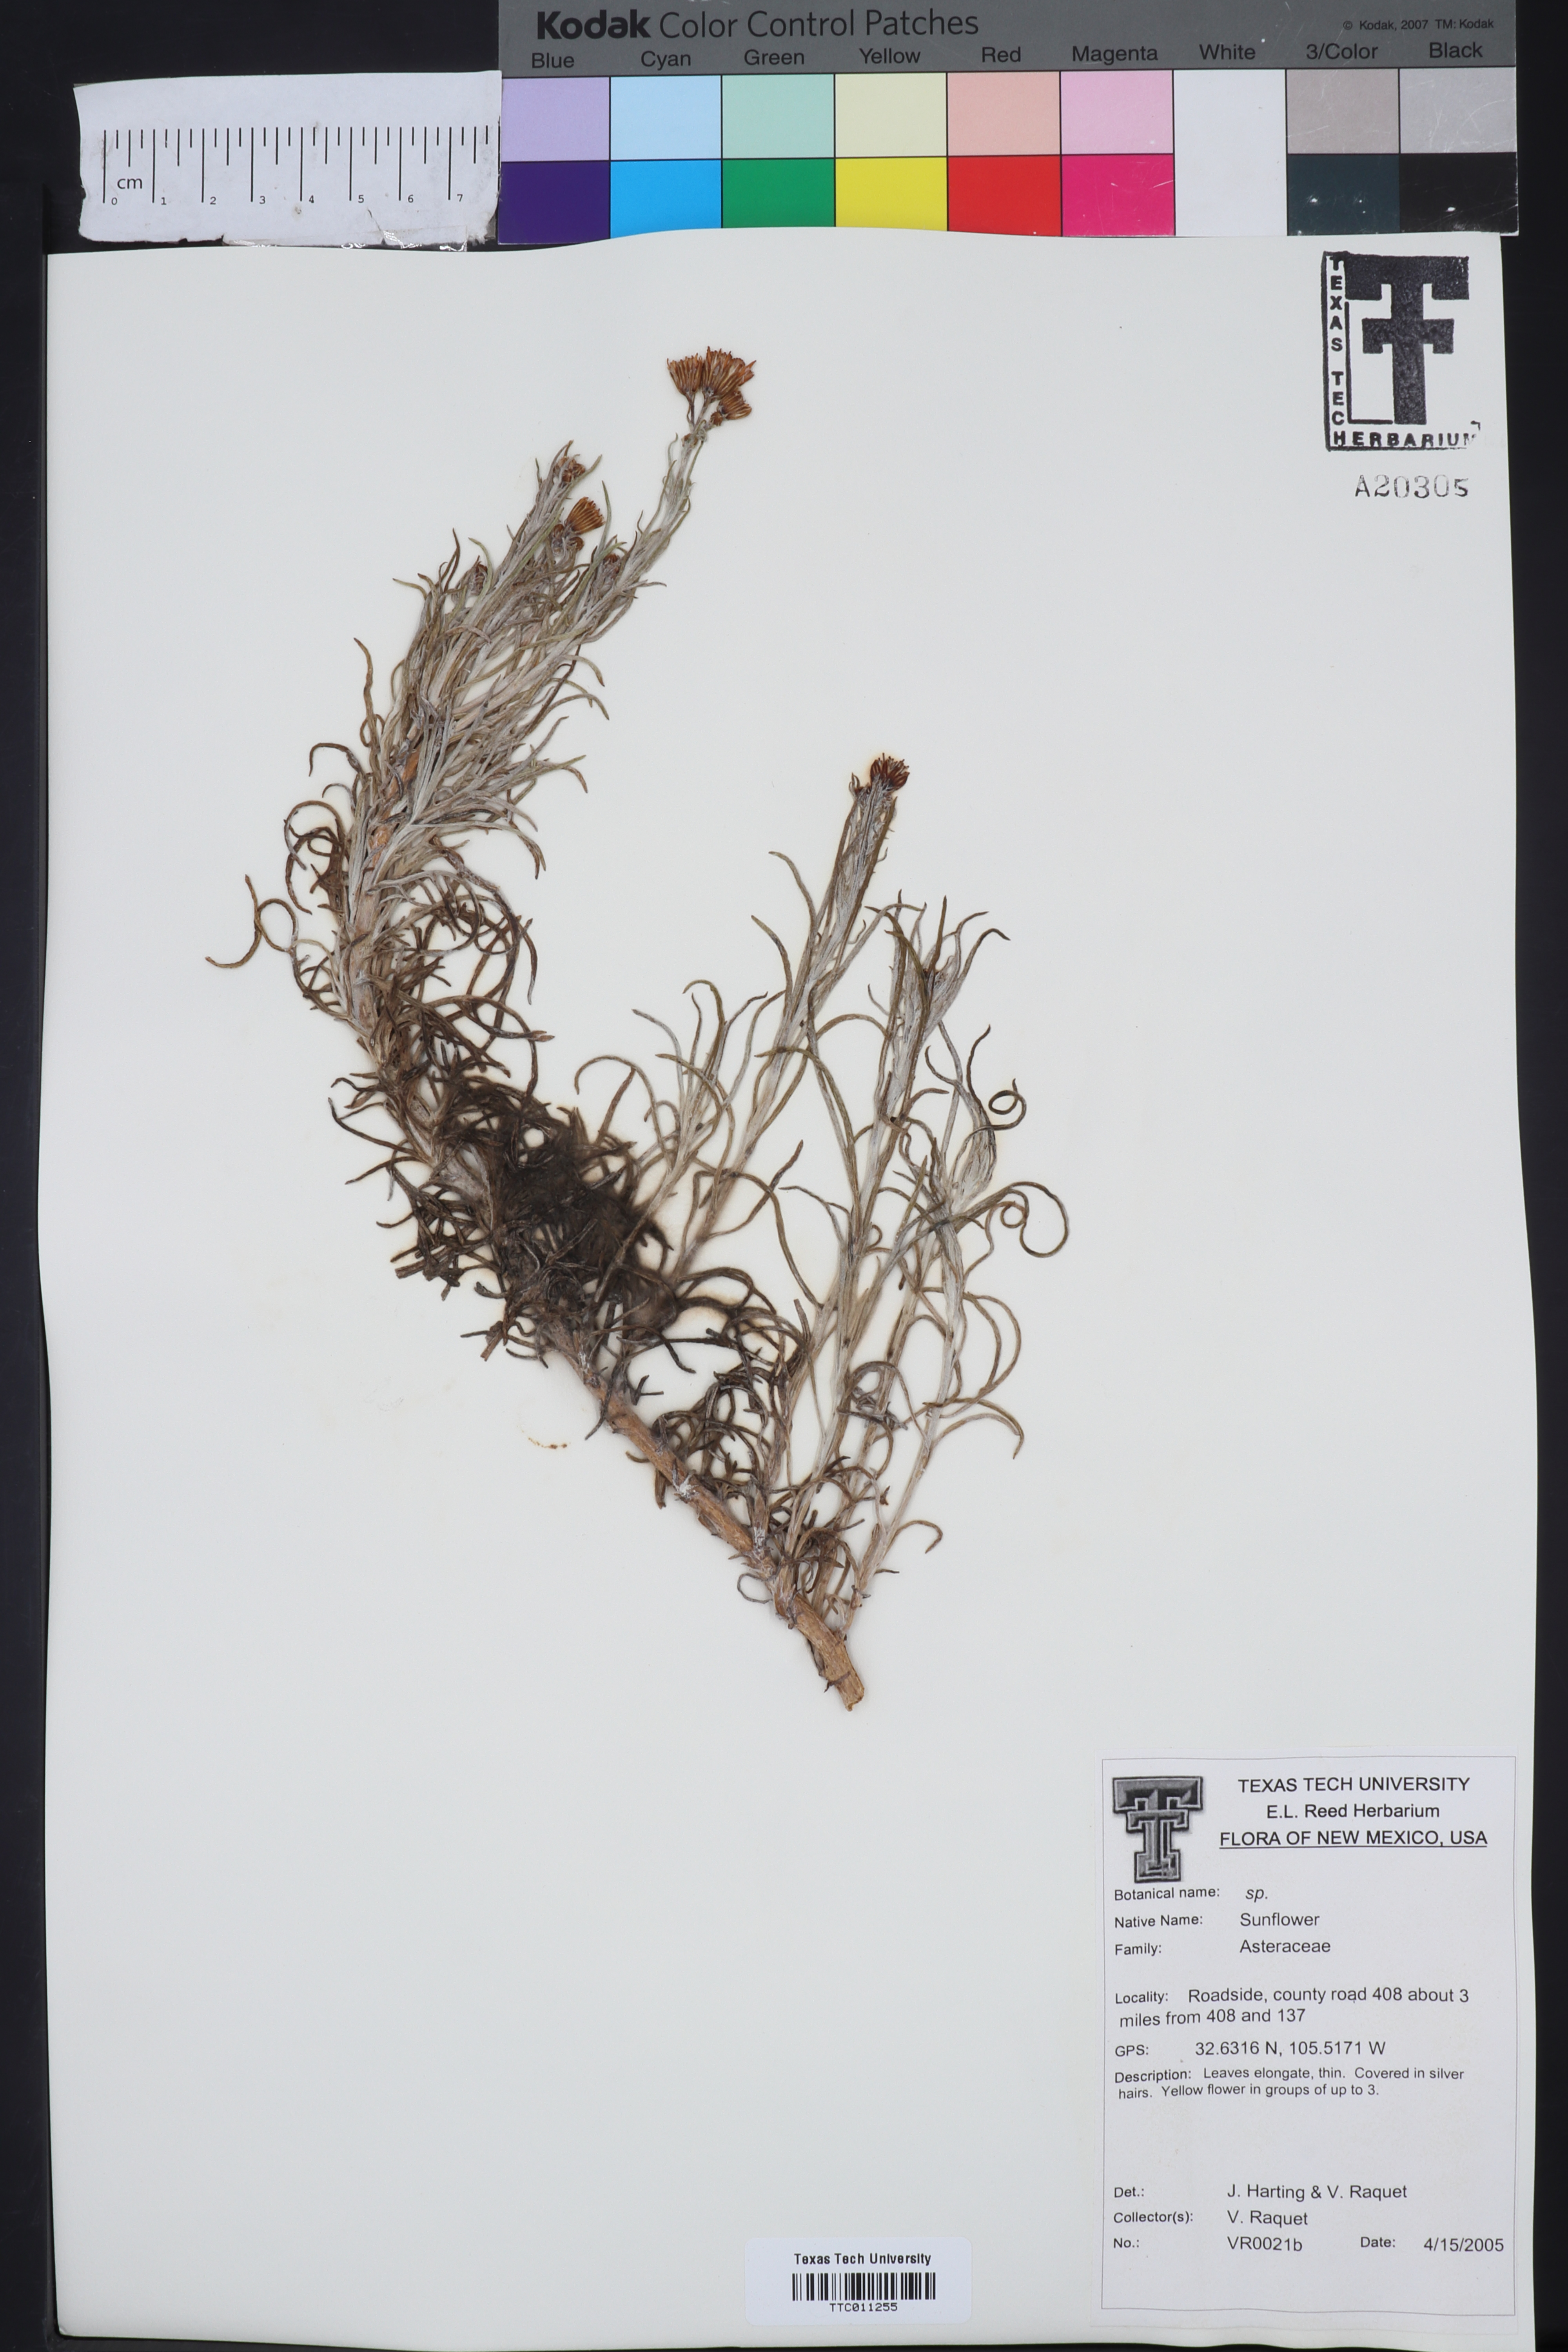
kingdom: Plantae
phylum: Tracheophyta
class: Magnoliopsida
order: Asterales
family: Asteraceae
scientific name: Asteraceae
